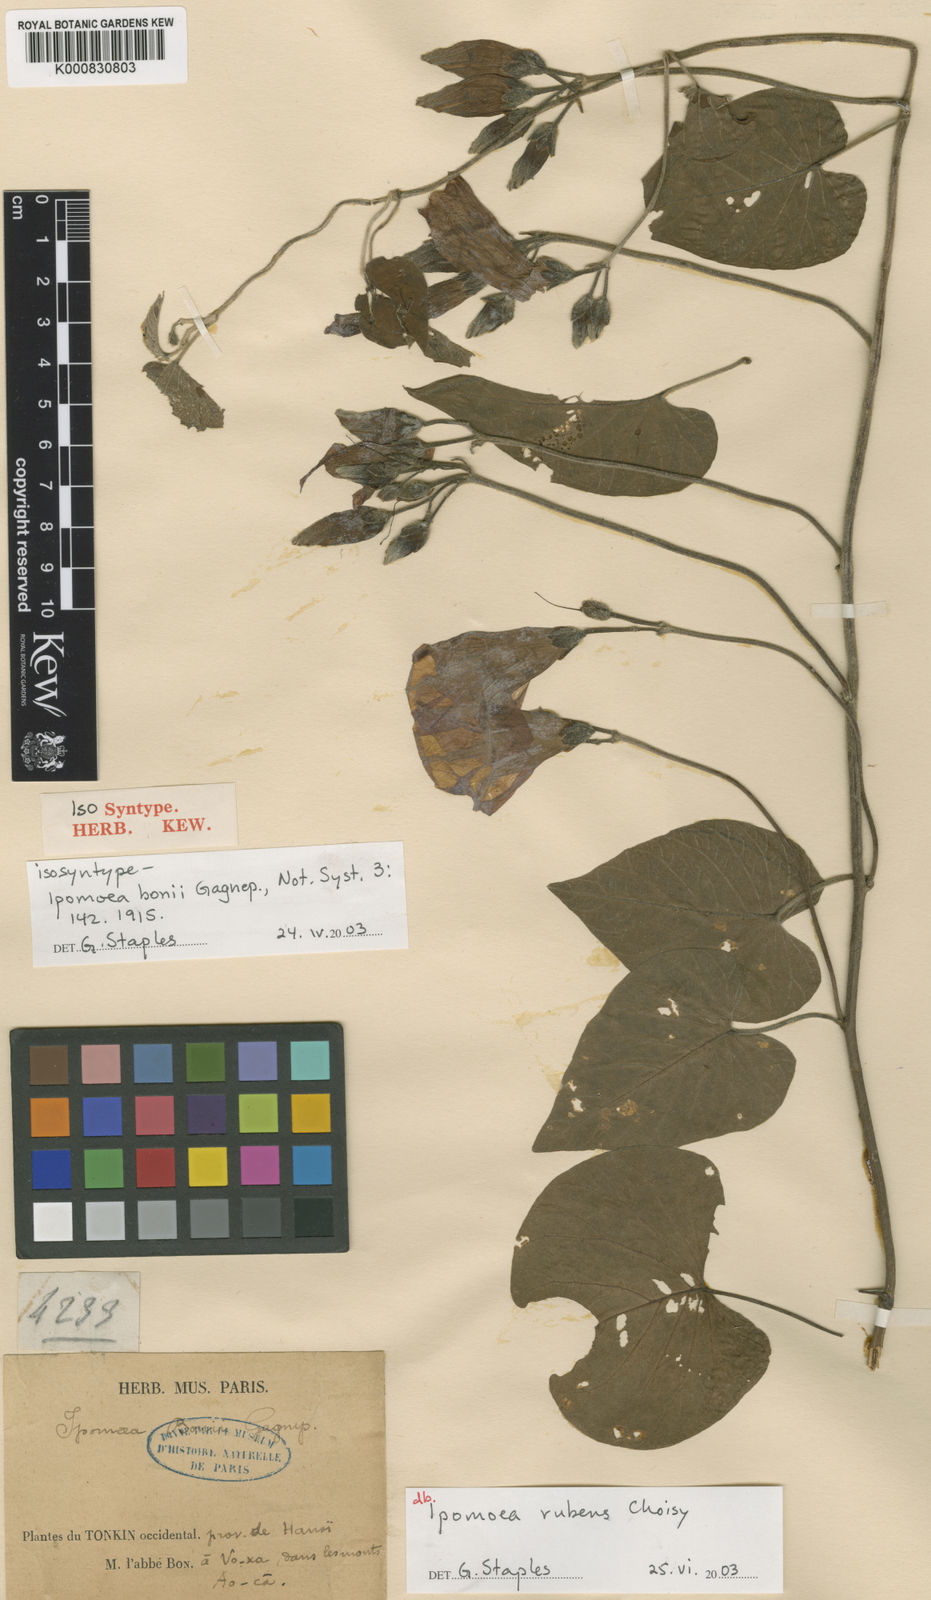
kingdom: Plantae
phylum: Tracheophyta
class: Magnoliopsida
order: Solanales
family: Convolvulaceae
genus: Ipomoea
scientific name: Ipomoea rubens
